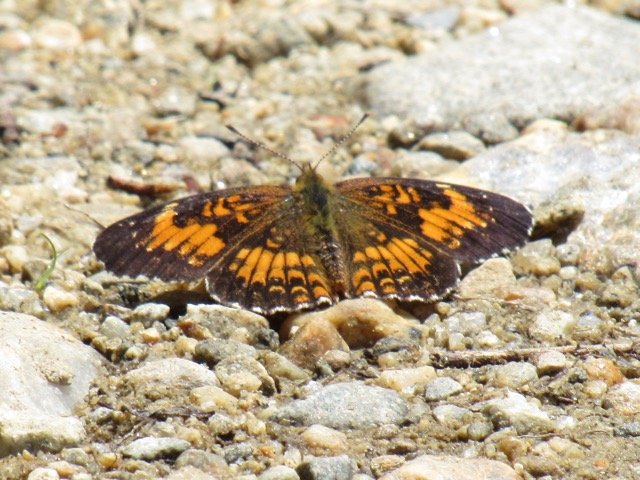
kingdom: Animalia
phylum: Arthropoda
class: Insecta
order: Lepidoptera
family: Nymphalidae
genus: Chlosyne
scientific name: Chlosyne harrisii
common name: Harris's Checkerspot
